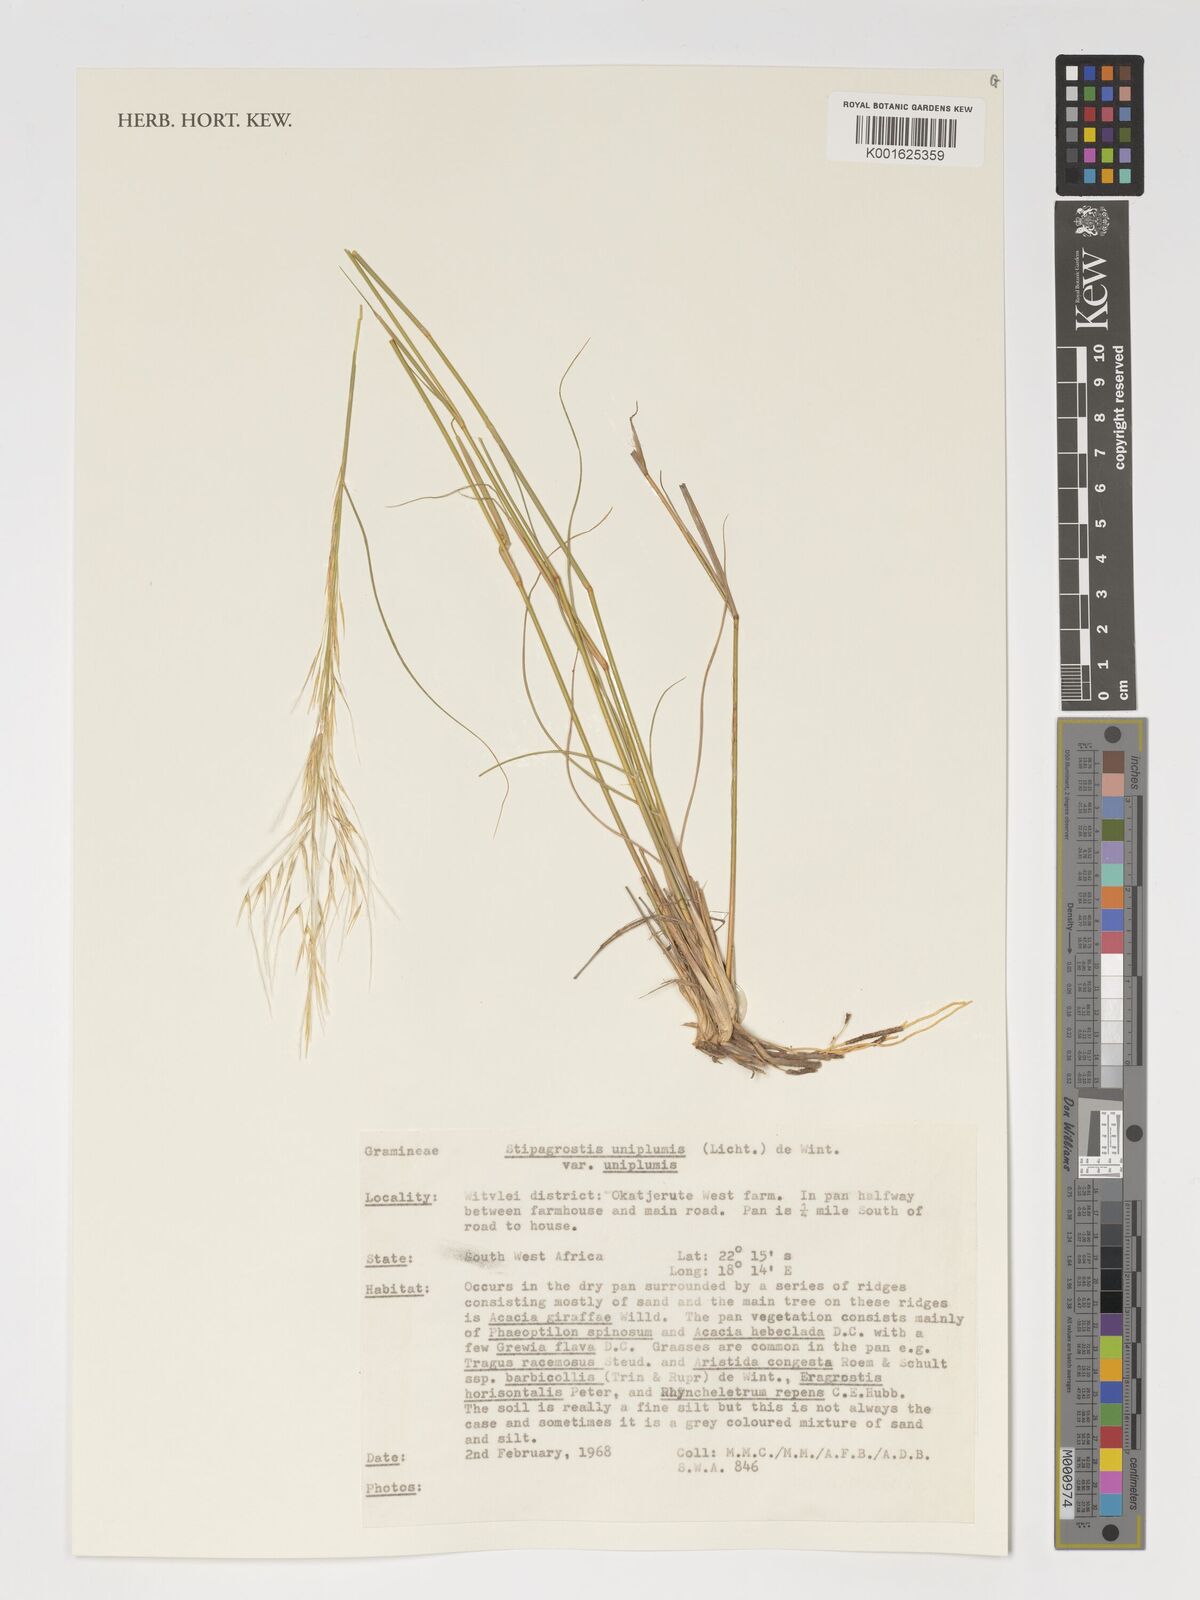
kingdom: Plantae
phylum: Tracheophyta
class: Liliopsida
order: Poales
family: Poaceae
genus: Stipagrostis
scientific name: Stipagrostis uniplumis
